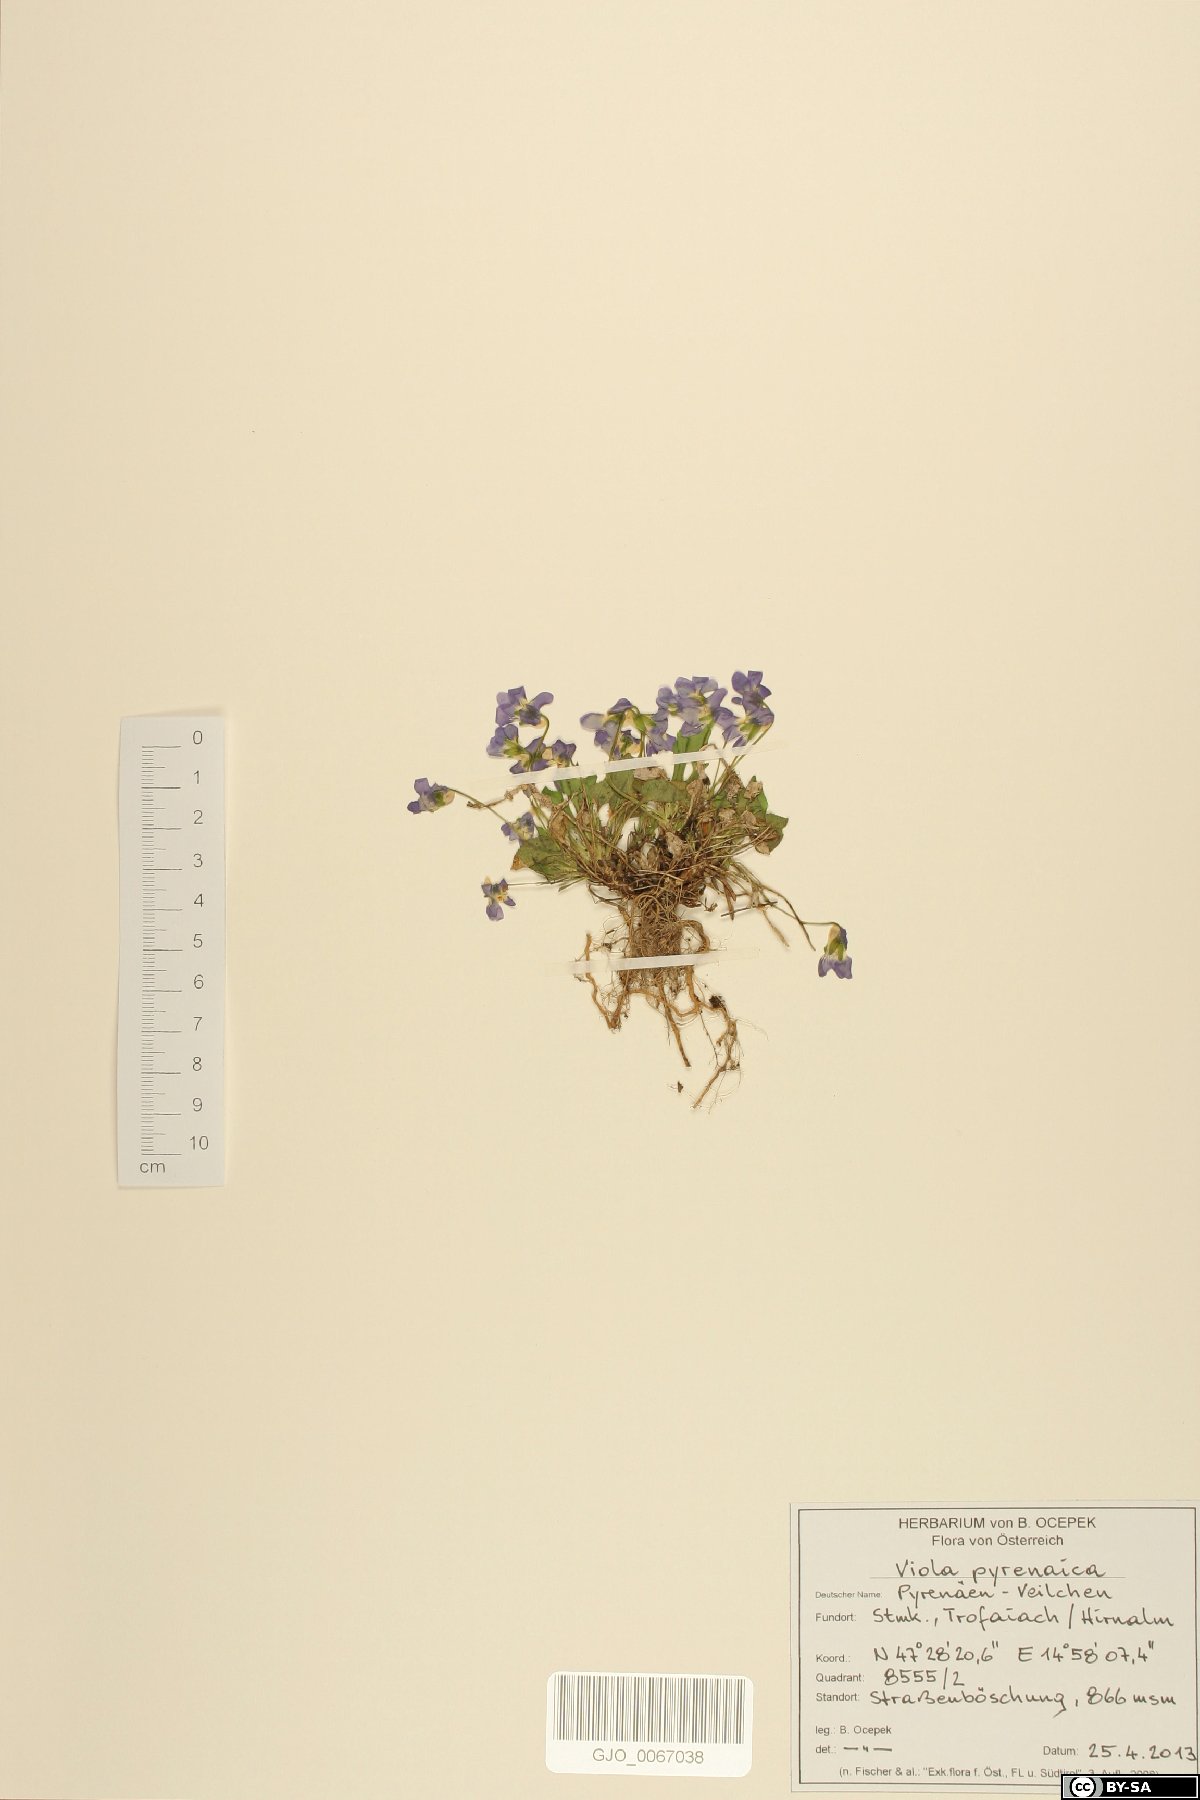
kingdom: Plantae
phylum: Tracheophyta
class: Magnoliopsida
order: Malpighiales
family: Violaceae
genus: Viola
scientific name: Viola pyrenaica
